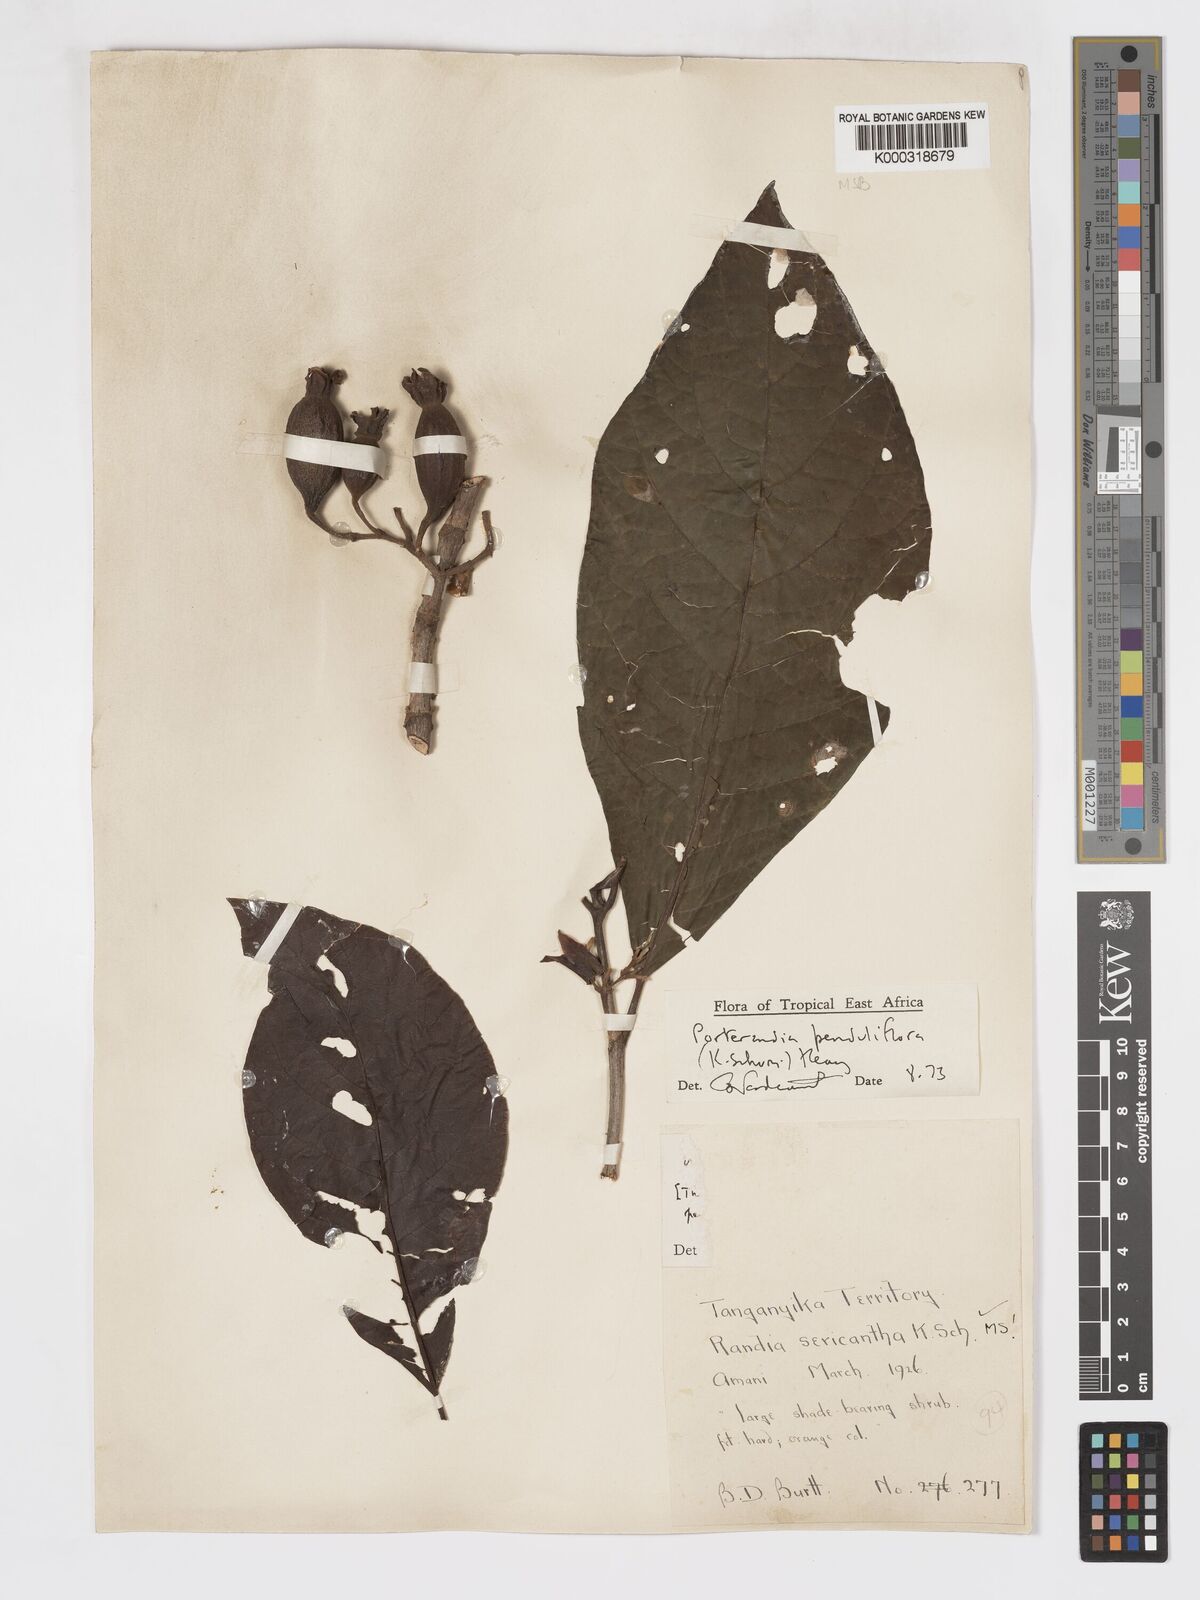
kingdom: Plantae
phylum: Tracheophyta
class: Magnoliopsida
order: Gentianales
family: Rubiaceae
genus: Aoranthe
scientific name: Aoranthe penduliflora
